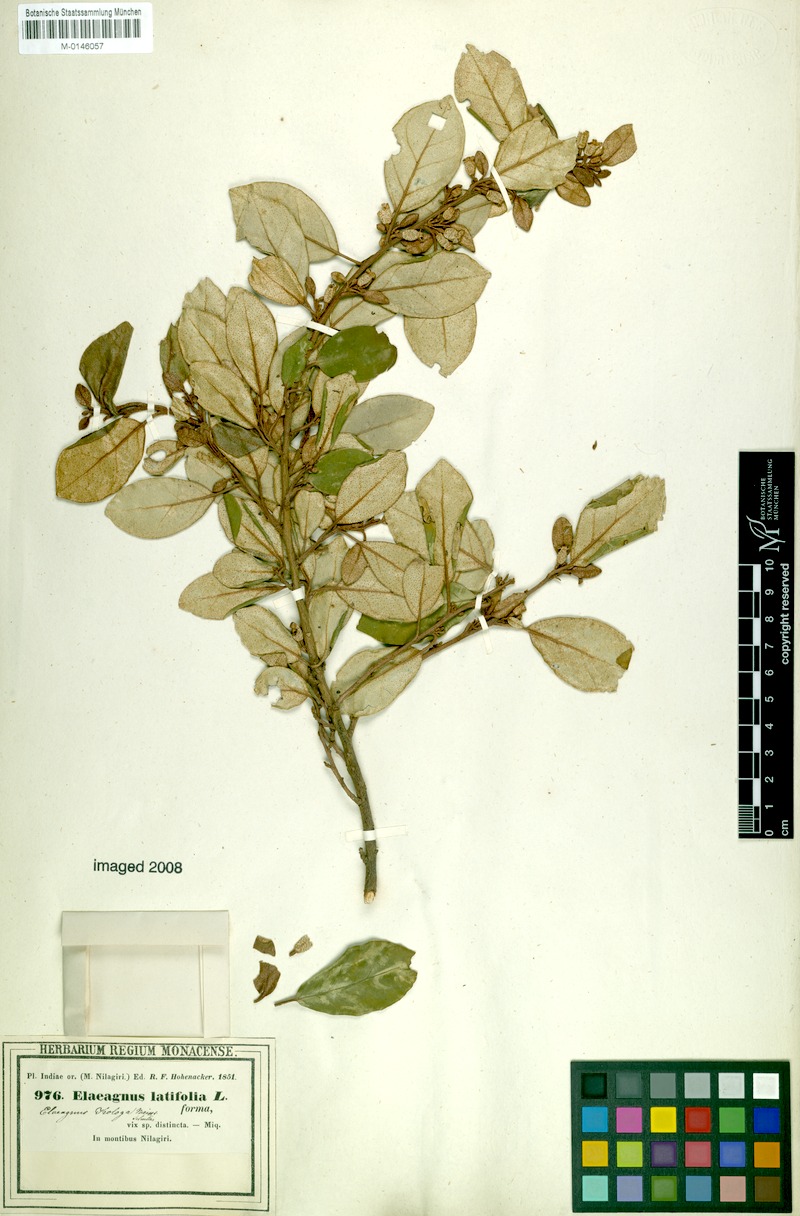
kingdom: Plantae
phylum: Tracheophyta
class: Magnoliopsida
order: Rosales
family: Elaeagnaceae
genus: Elaeagnus
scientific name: Elaeagnus conferta
